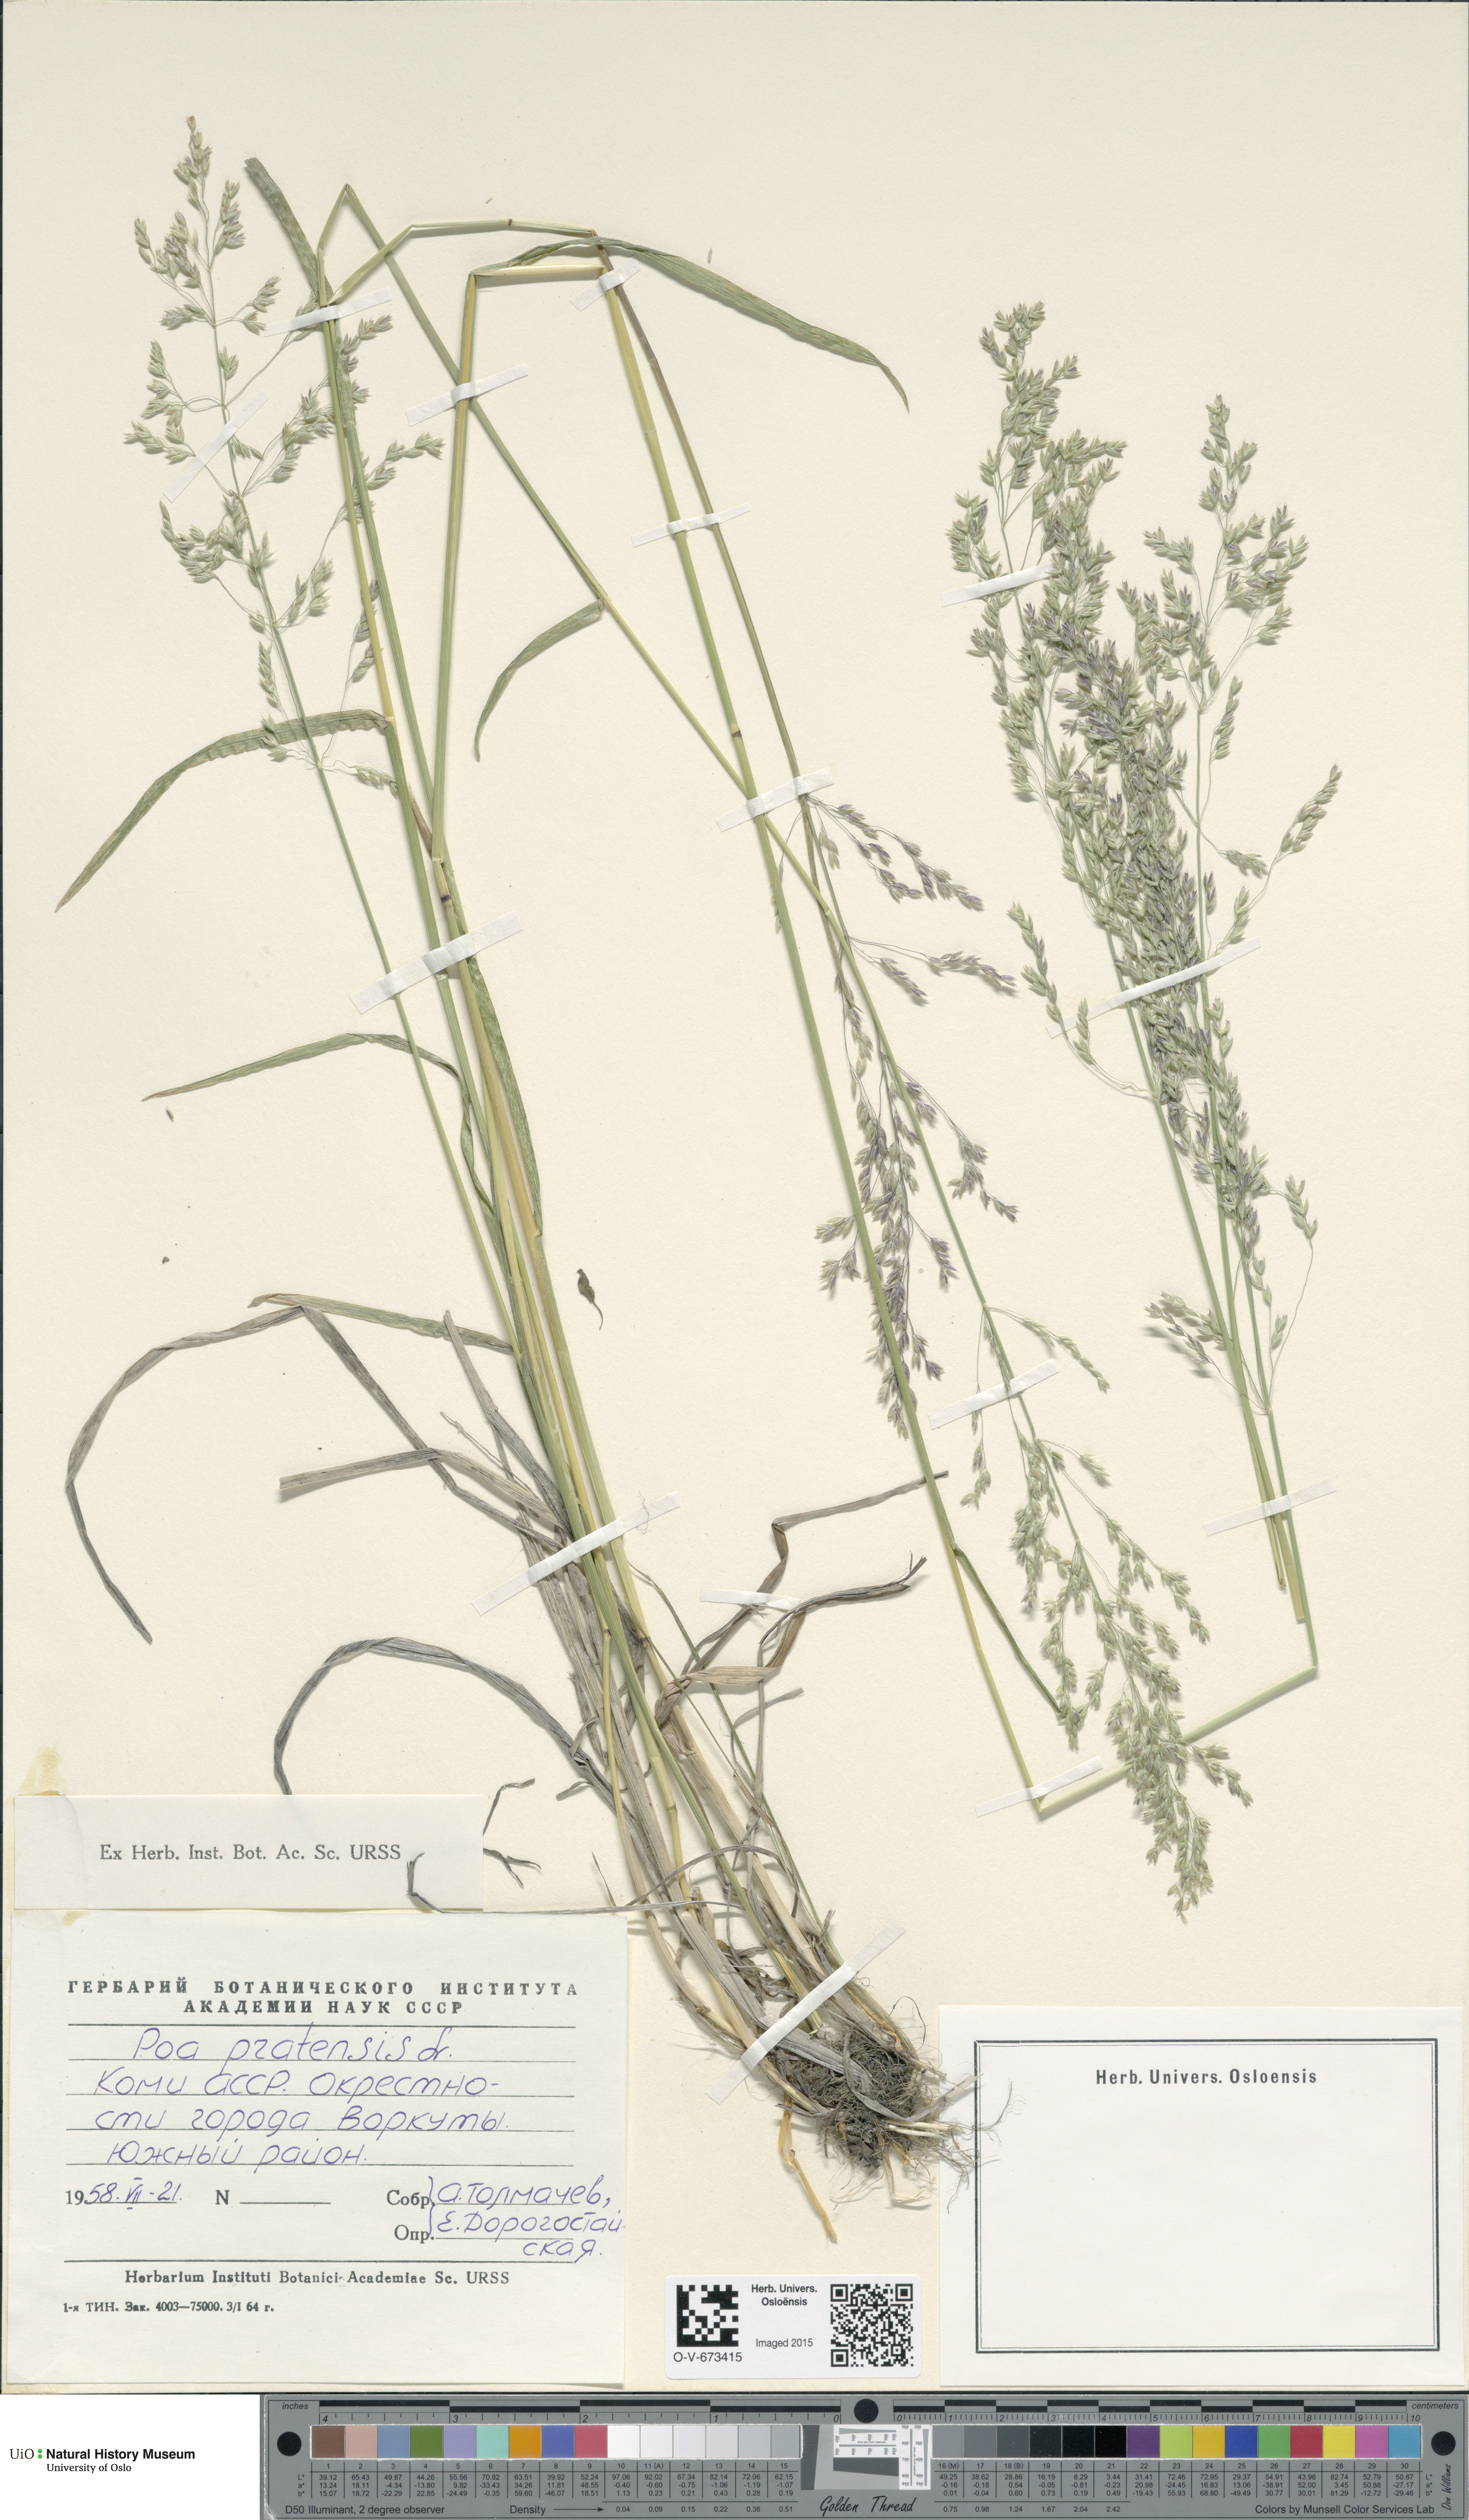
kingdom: Plantae
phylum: Tracheophyta
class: Liliopsida
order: Poales
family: Poaceae
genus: Poa
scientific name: Poa pratensis
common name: Kentucky bluegrass
